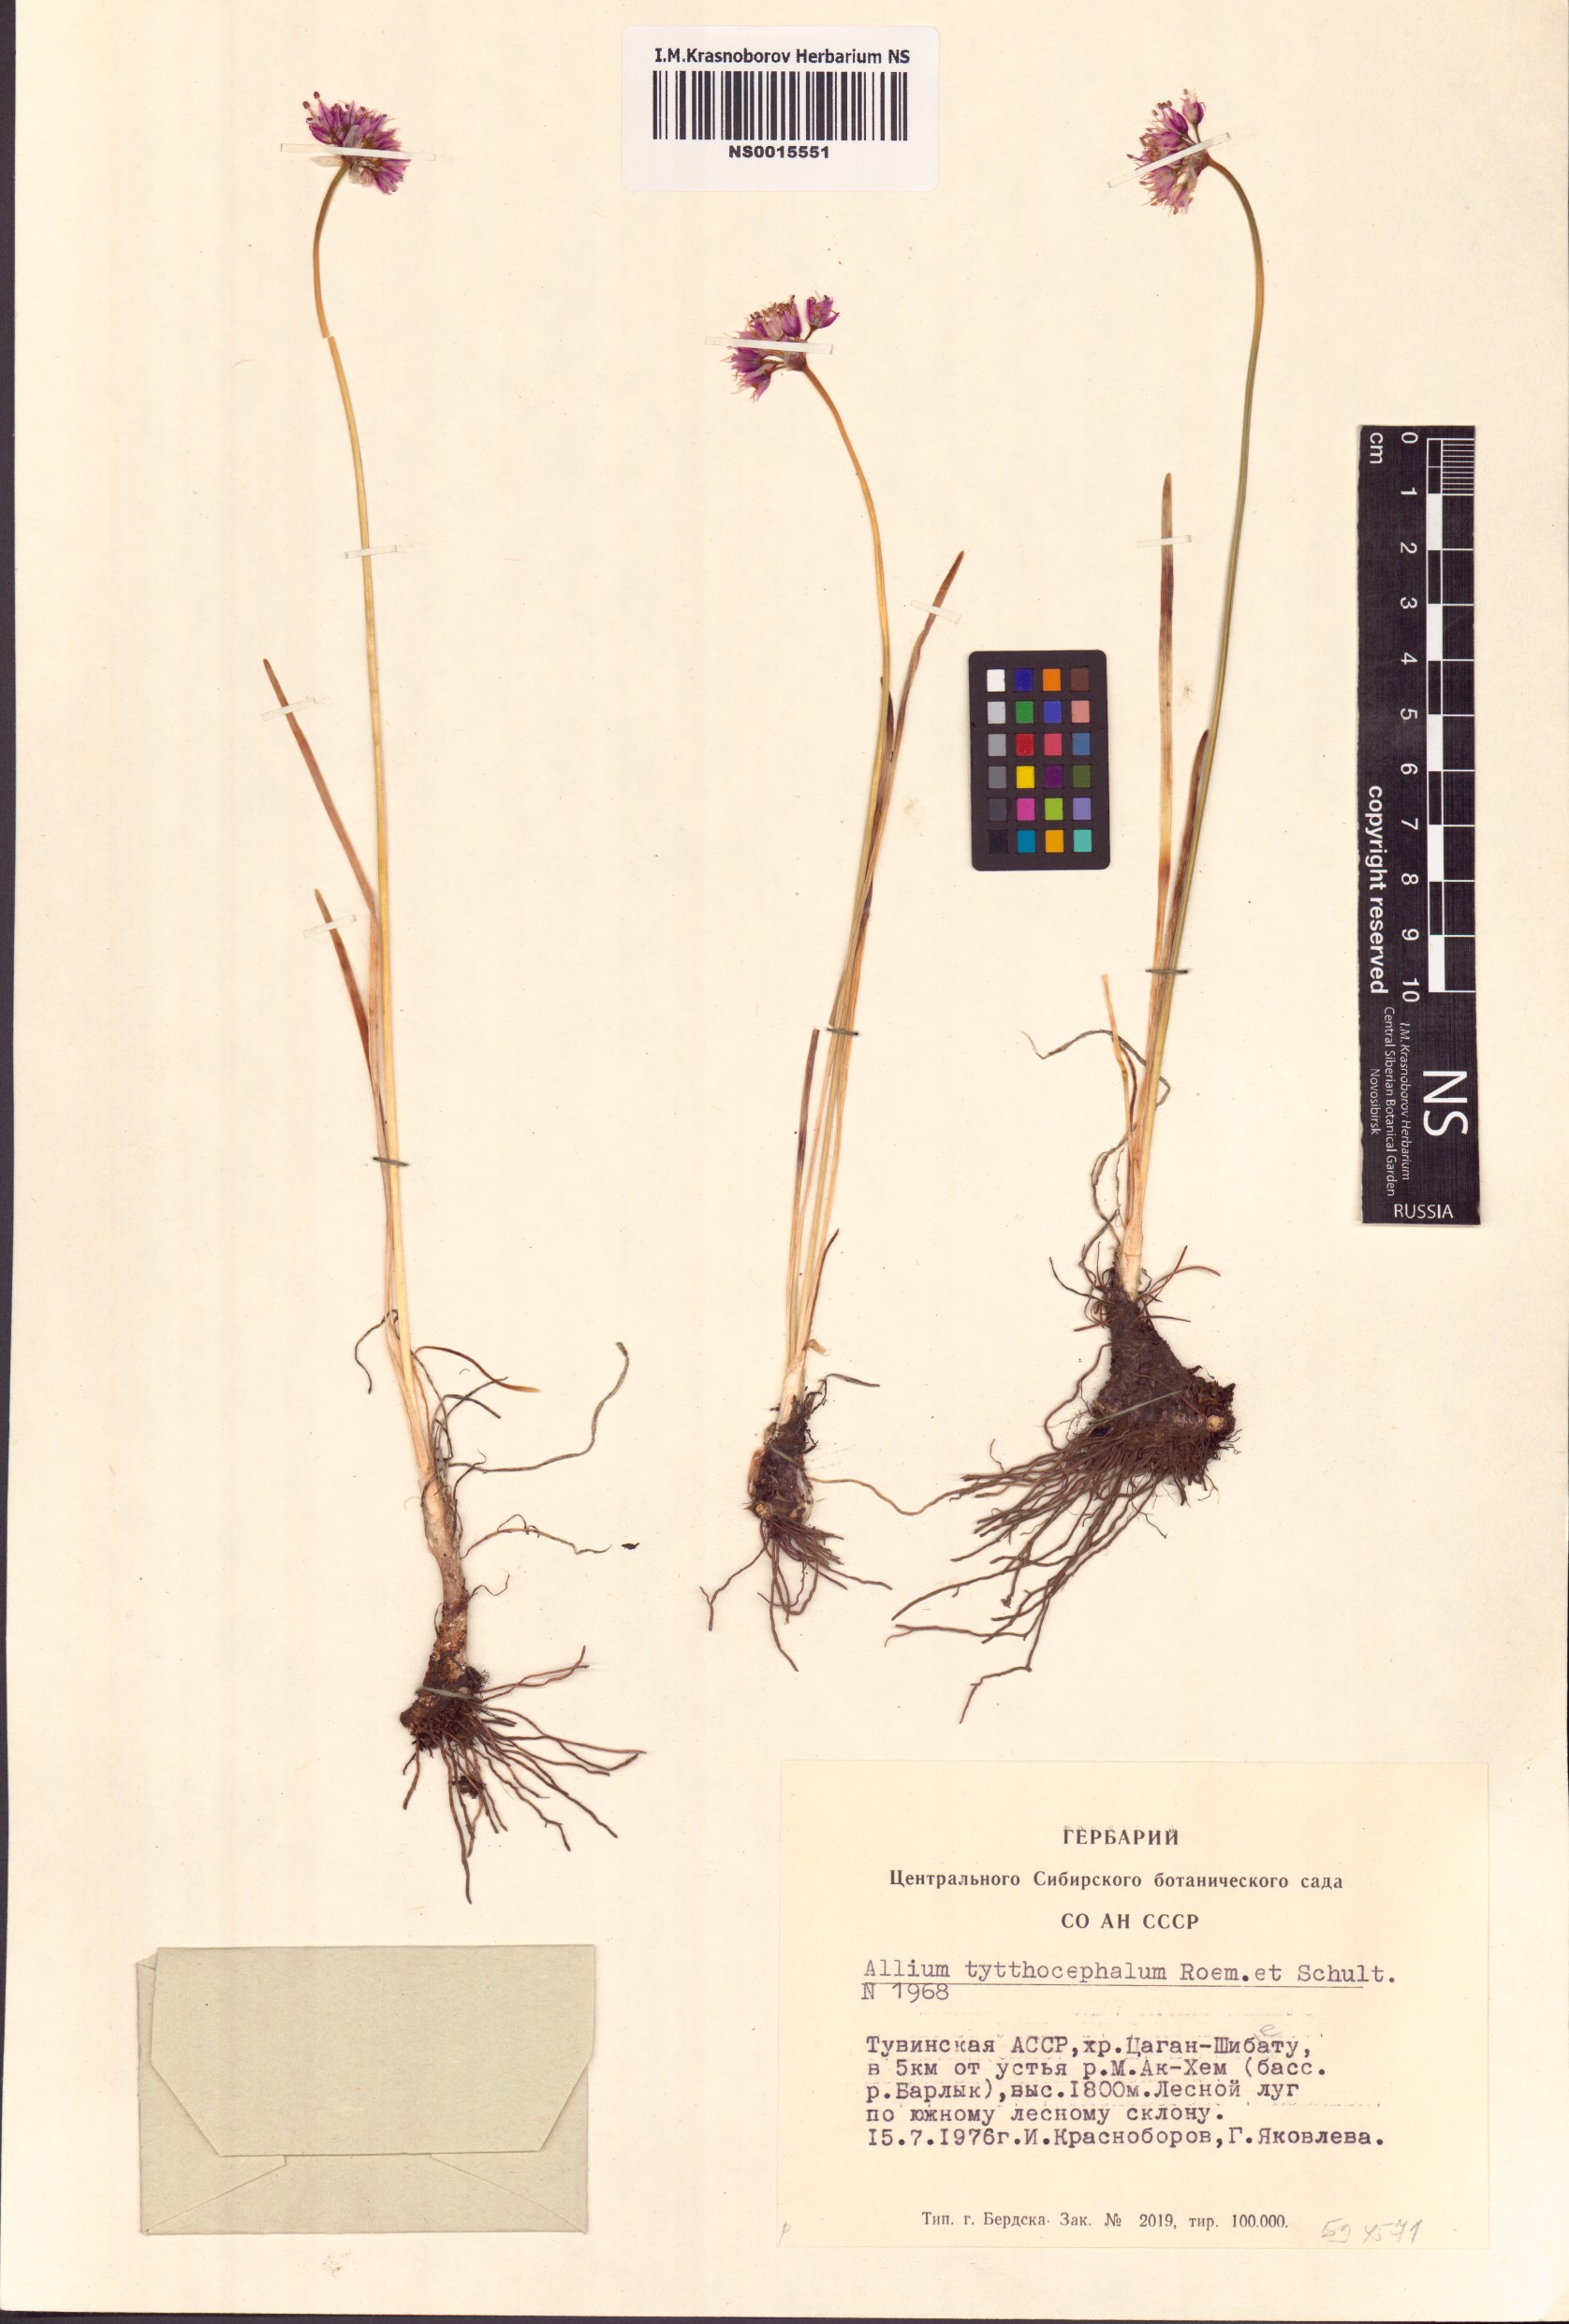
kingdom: Plantae
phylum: Tracheophyta
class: Liliopsida
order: Asparagales
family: Amaryllidaceae
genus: Allium
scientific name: Allium tytthocephalum
